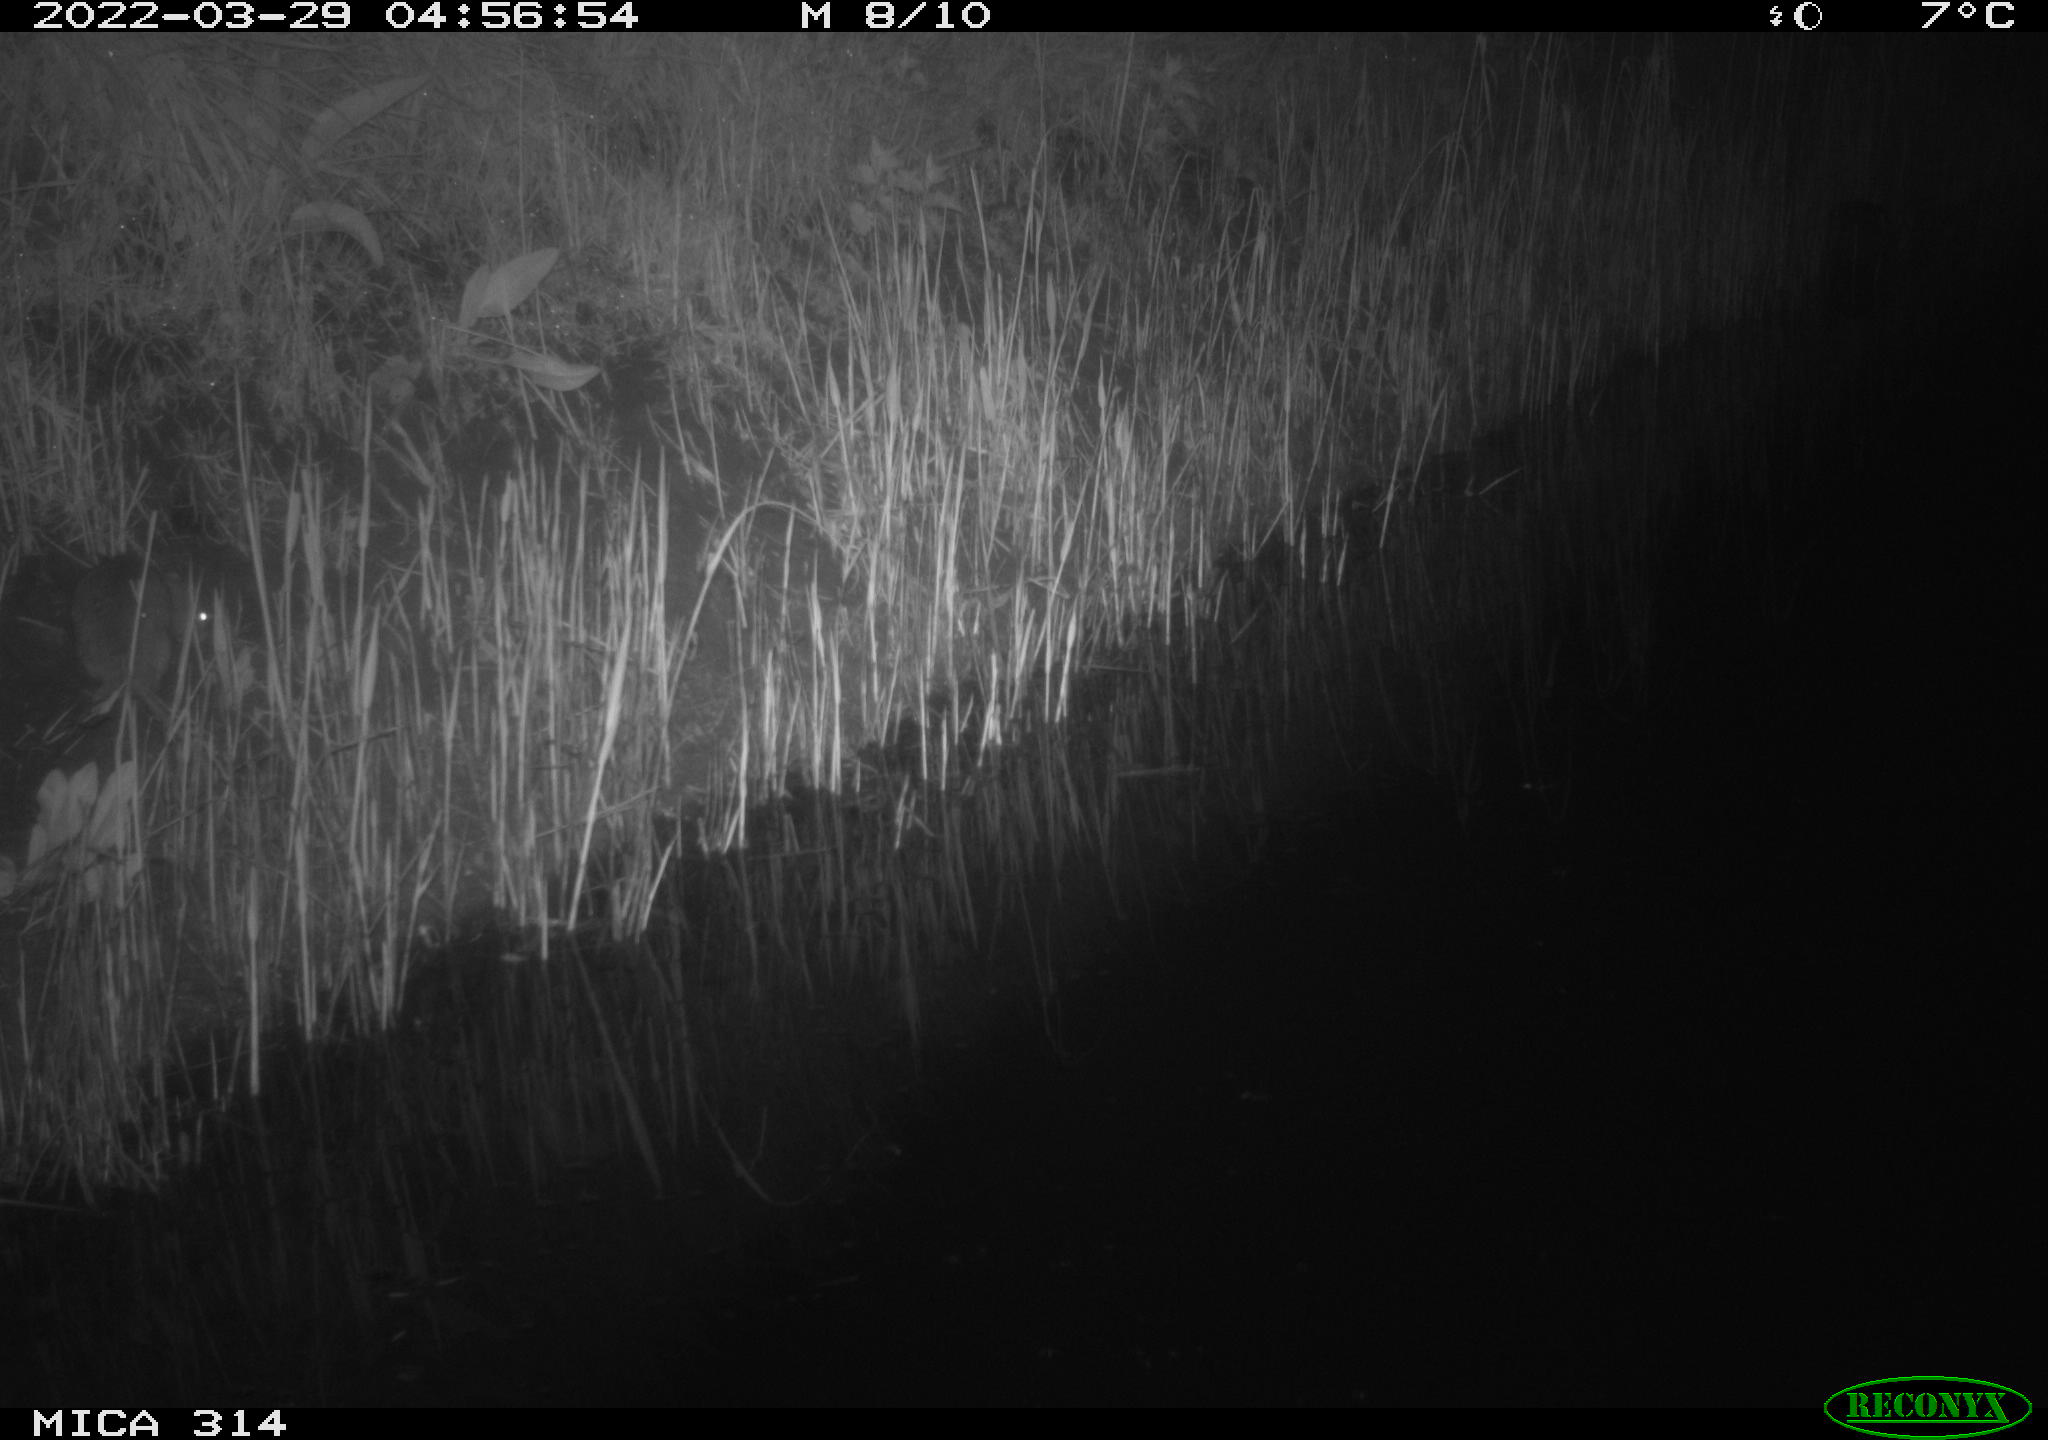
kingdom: Animalia
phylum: Chordata
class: Mammalia
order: Rodentia
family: Muridae
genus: Rattus
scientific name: Rattus norvegicus
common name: Brown rat
